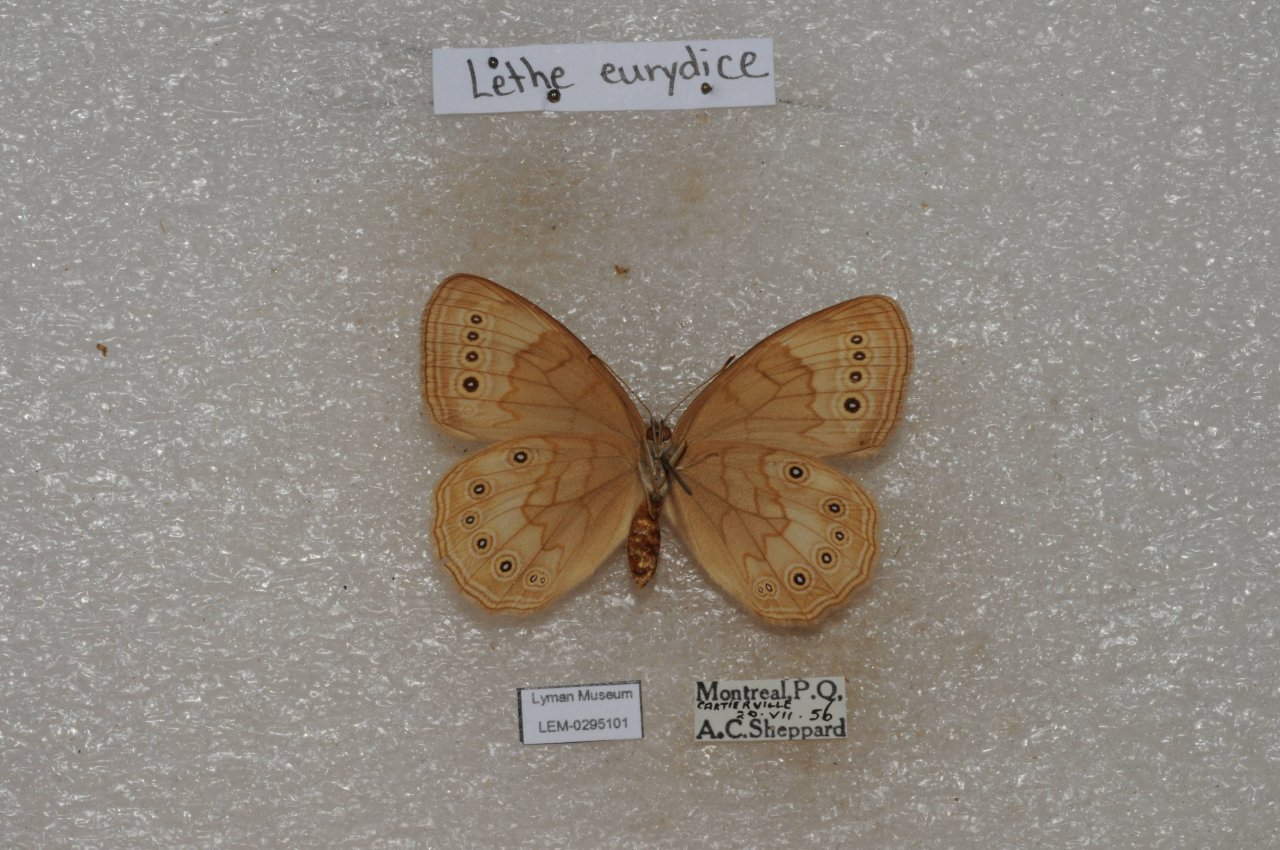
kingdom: Animalia
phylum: Arthropoda
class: Insecta
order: Lepidoptera
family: Nymphalidae
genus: Lethe
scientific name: Lethe eurydice
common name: Eyed Brown
